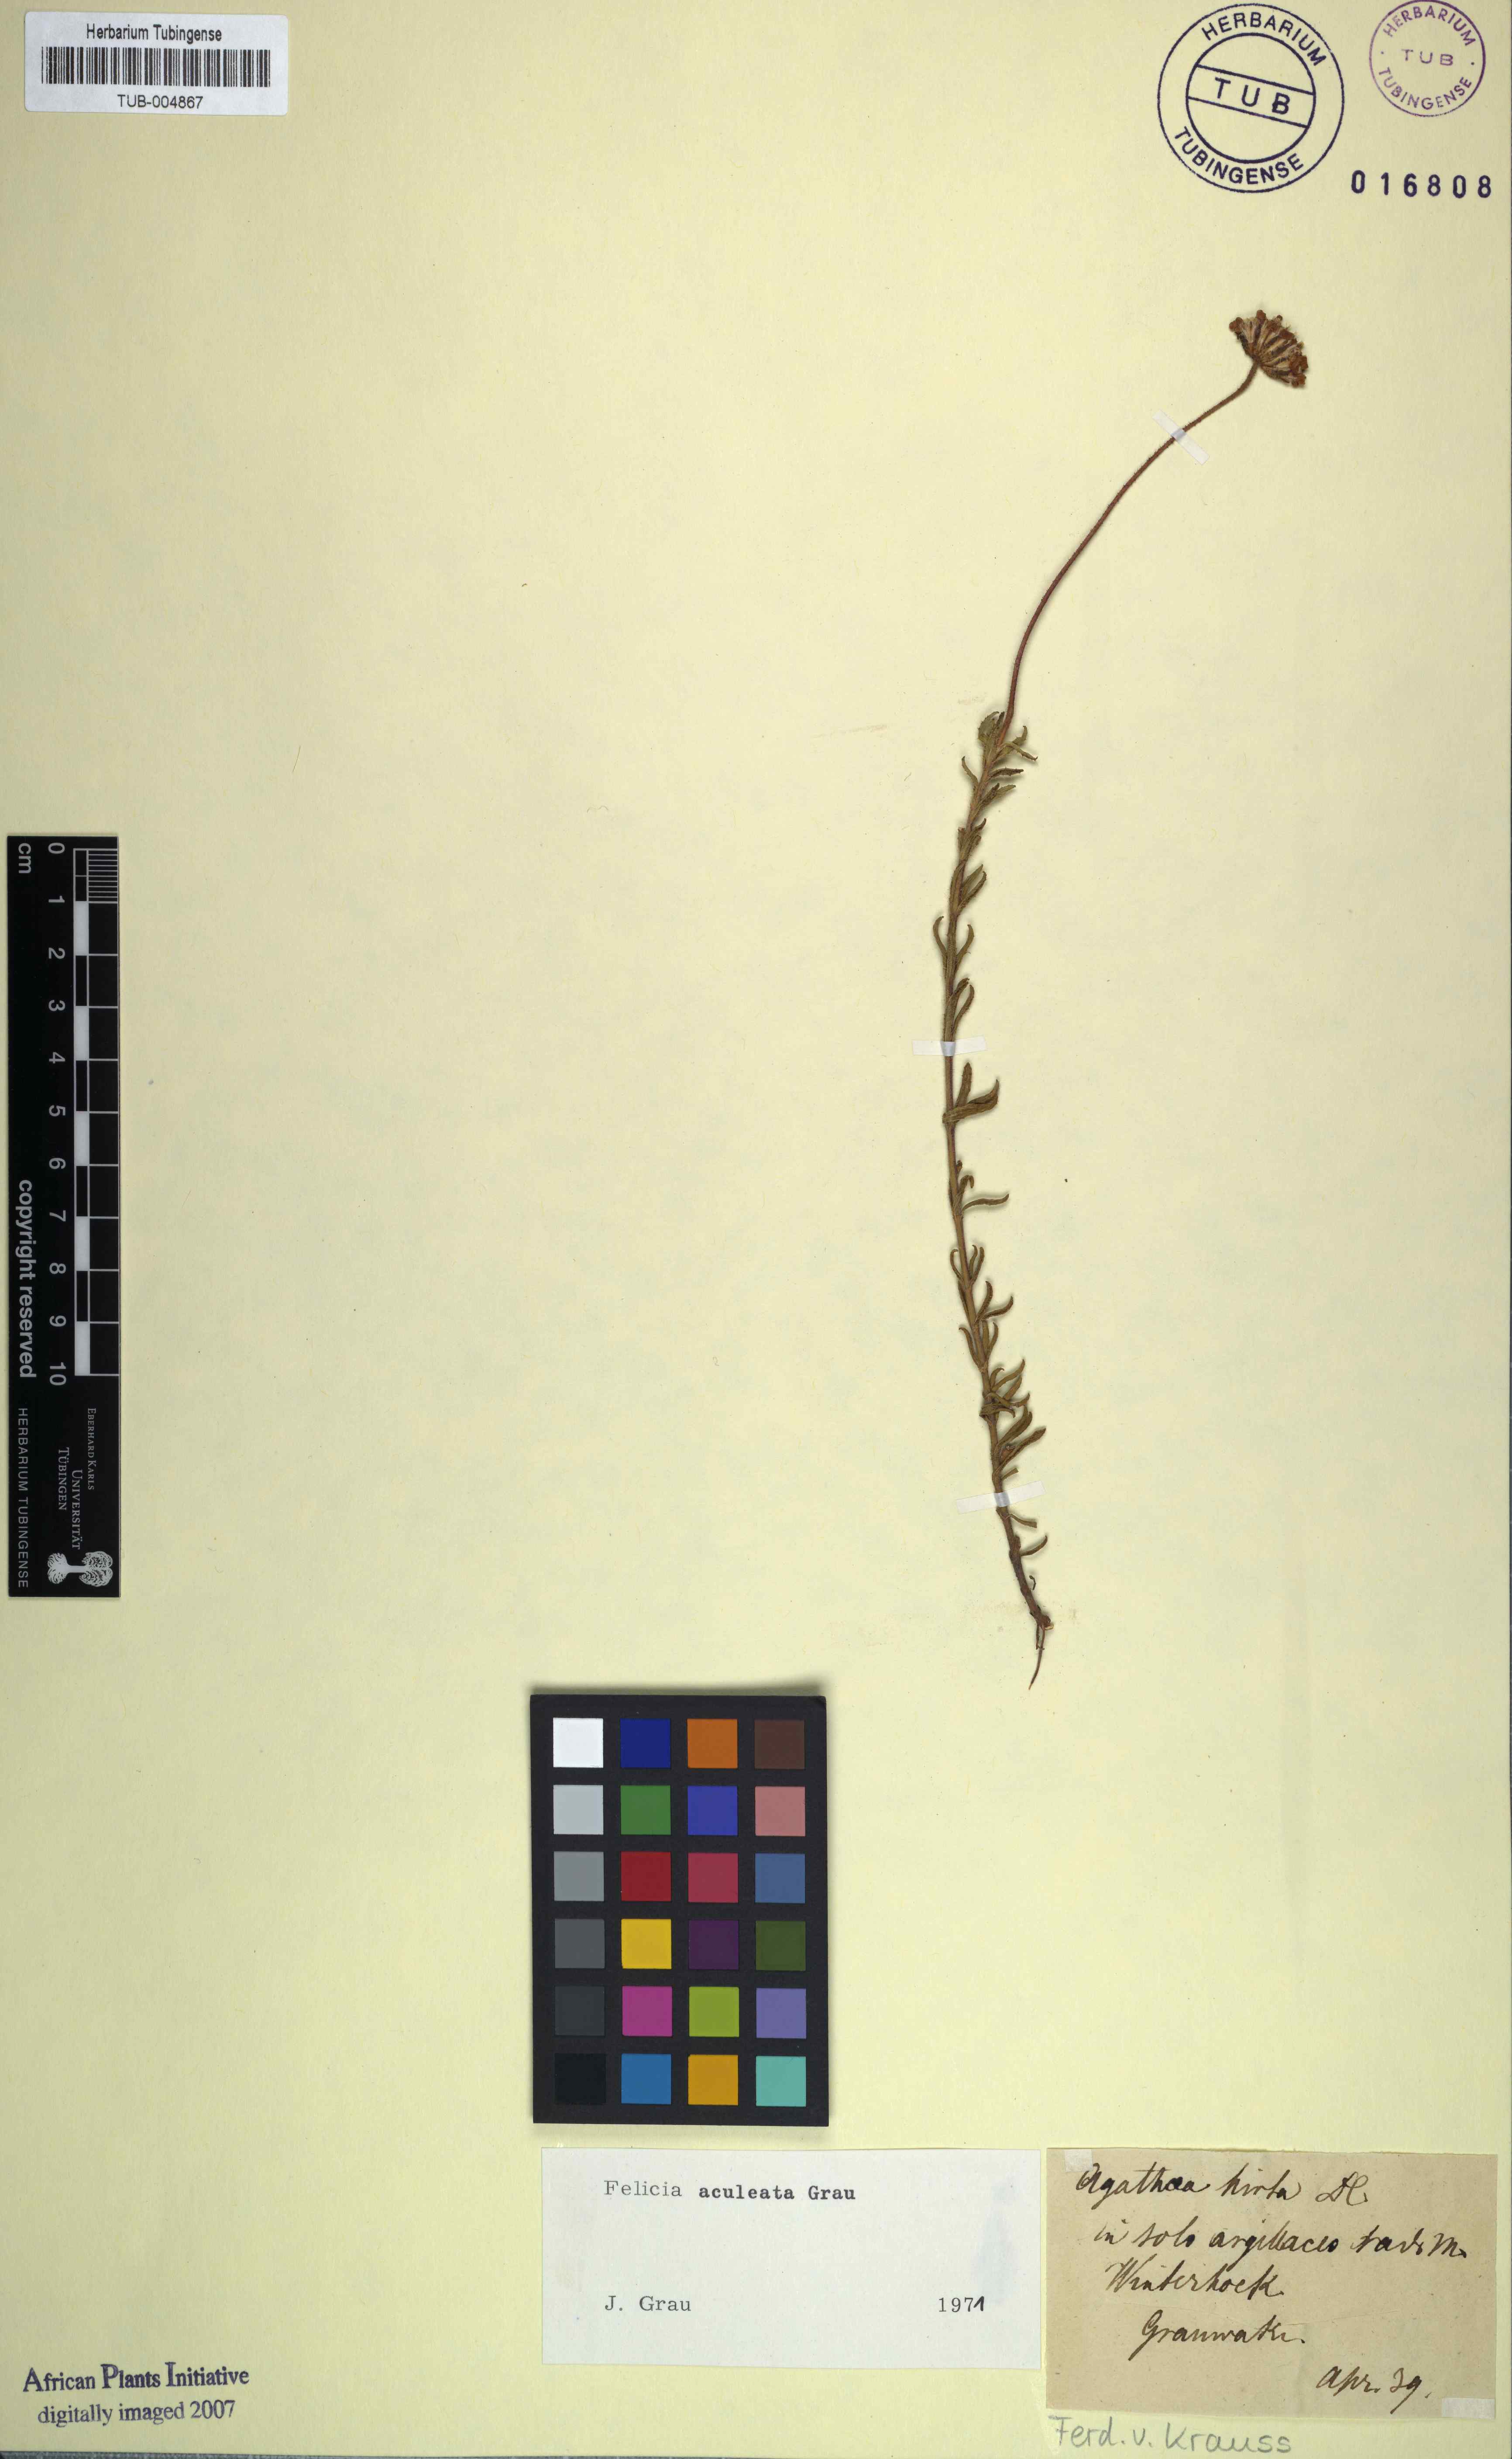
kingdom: Plantae
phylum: Tracheophyta
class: Magnoliopsida
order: Asterales
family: Asteraceae
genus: Felicia
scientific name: Felicia aculeata
